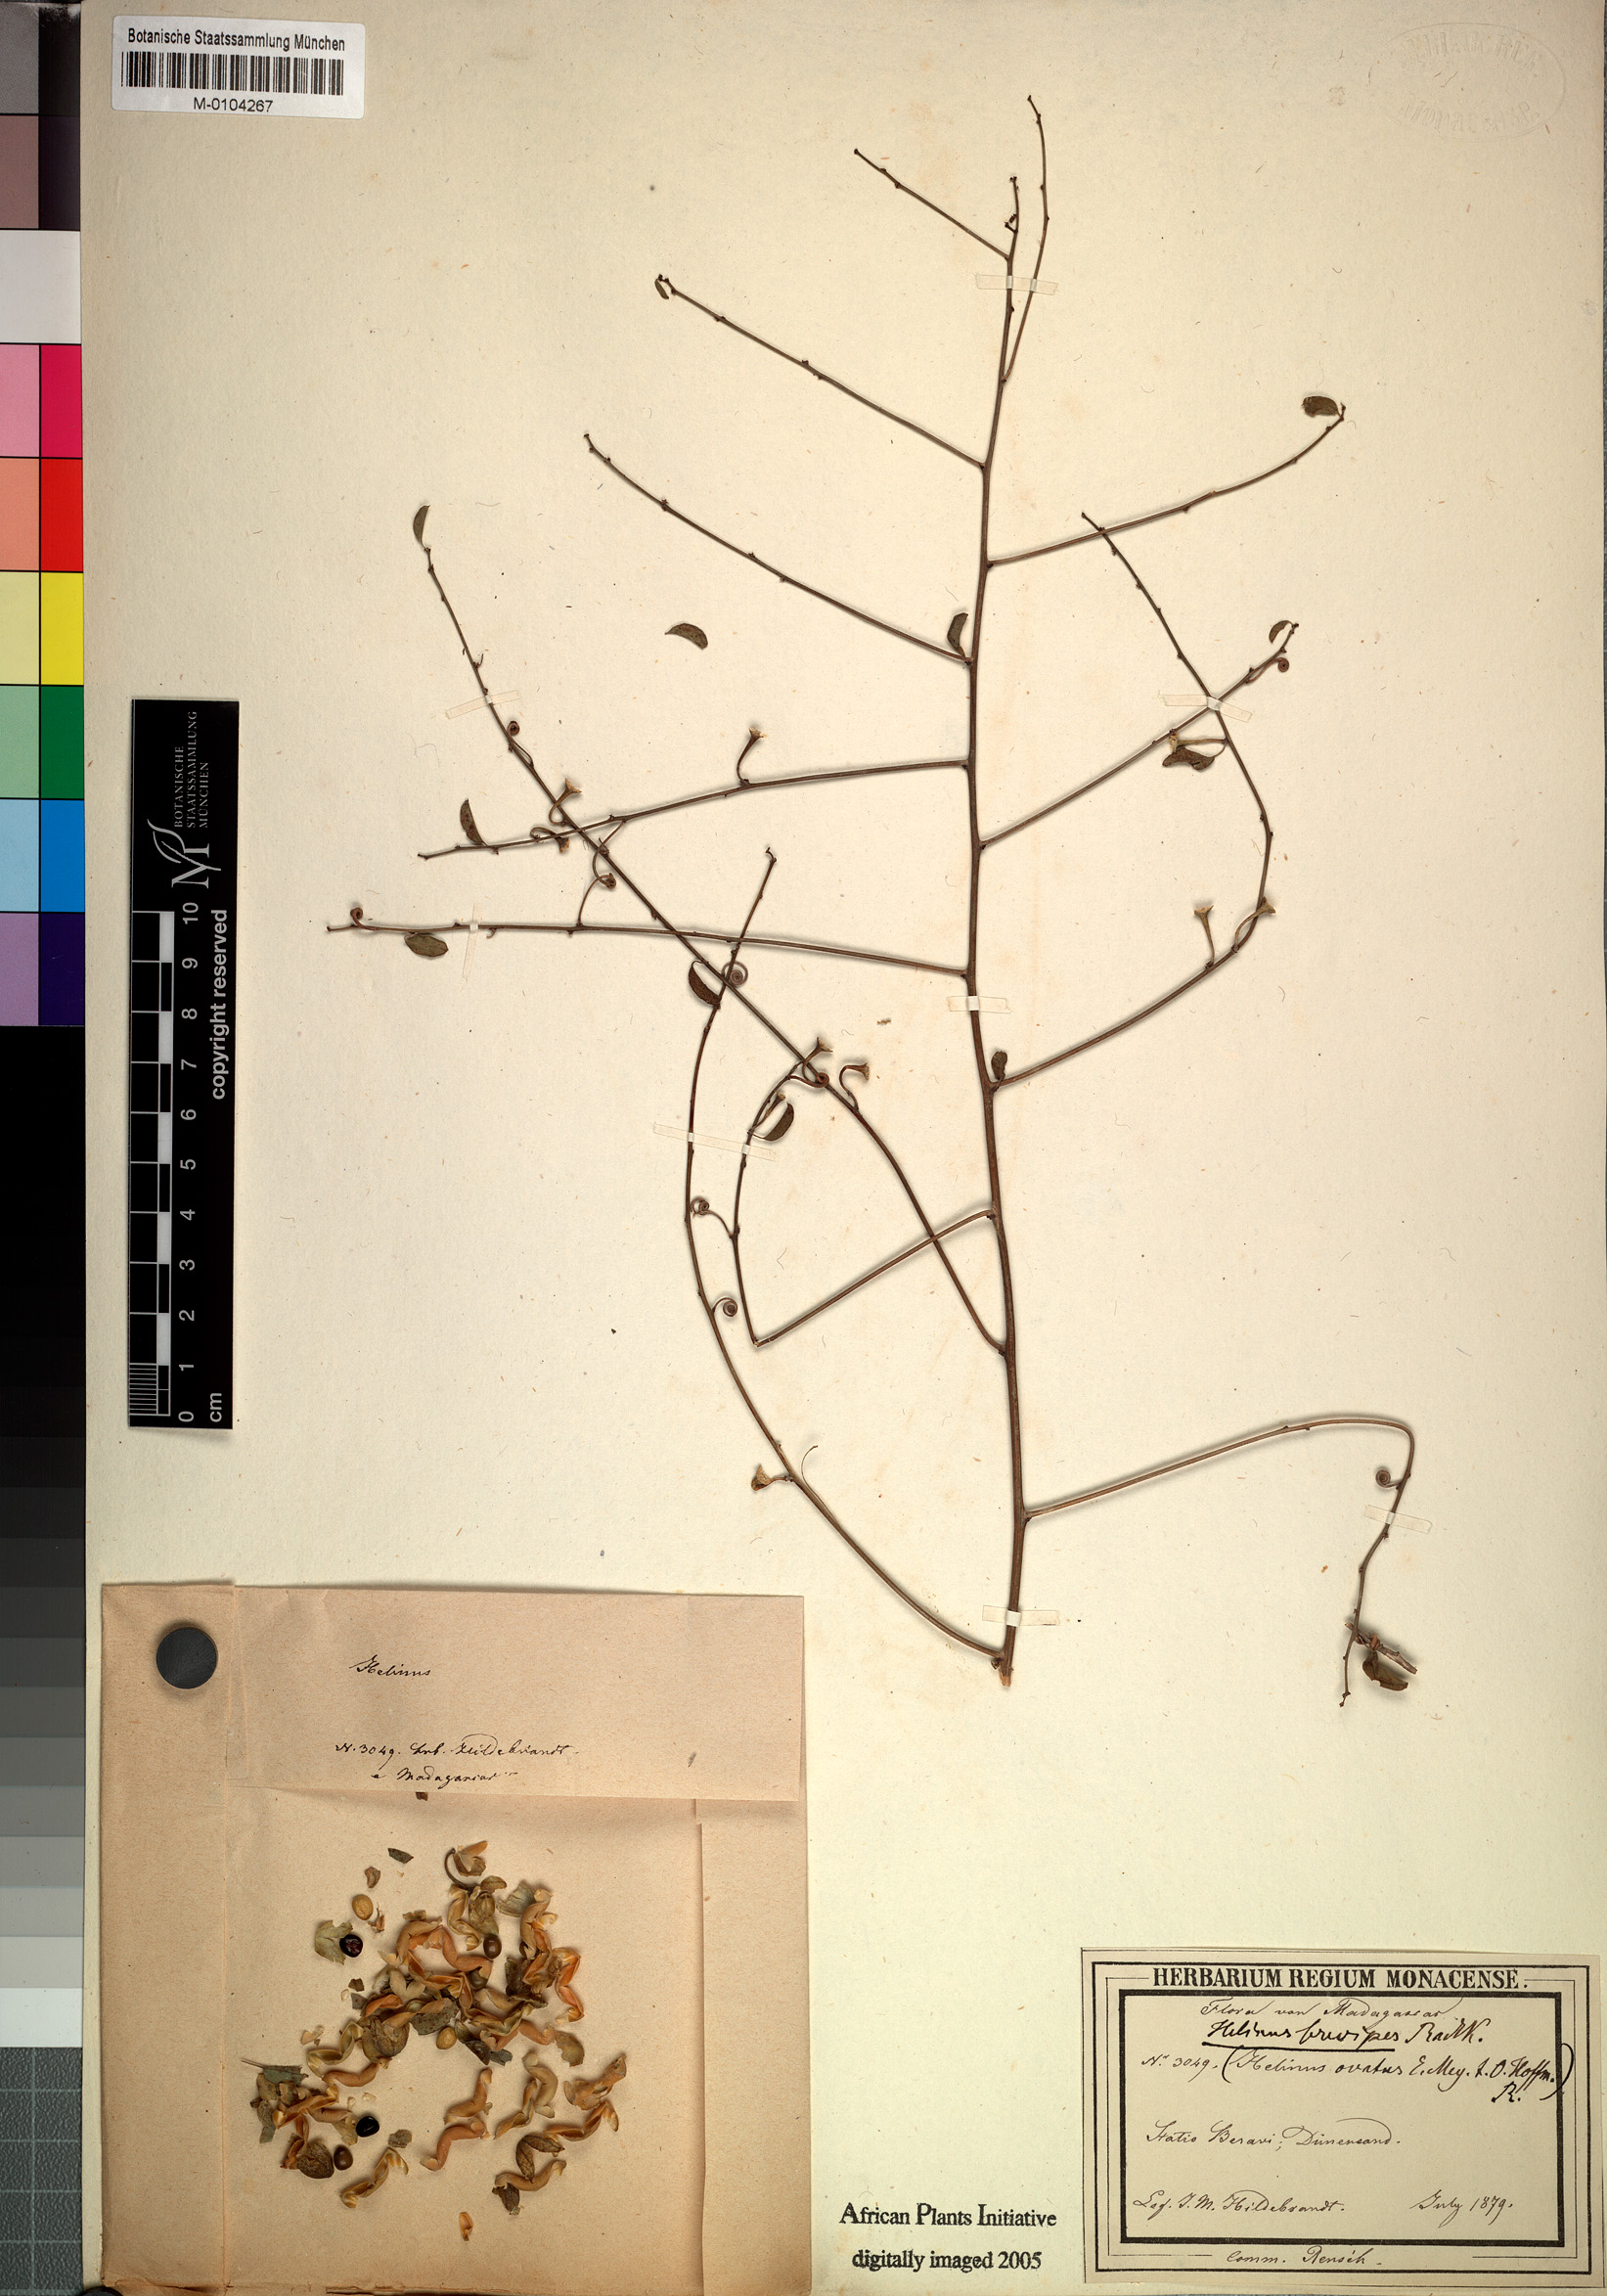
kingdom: Plantae
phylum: Tracheophyta
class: Magnoliopsida
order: Rosales
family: Rhamnaceae
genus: Helinus
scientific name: Helinus brevipes
